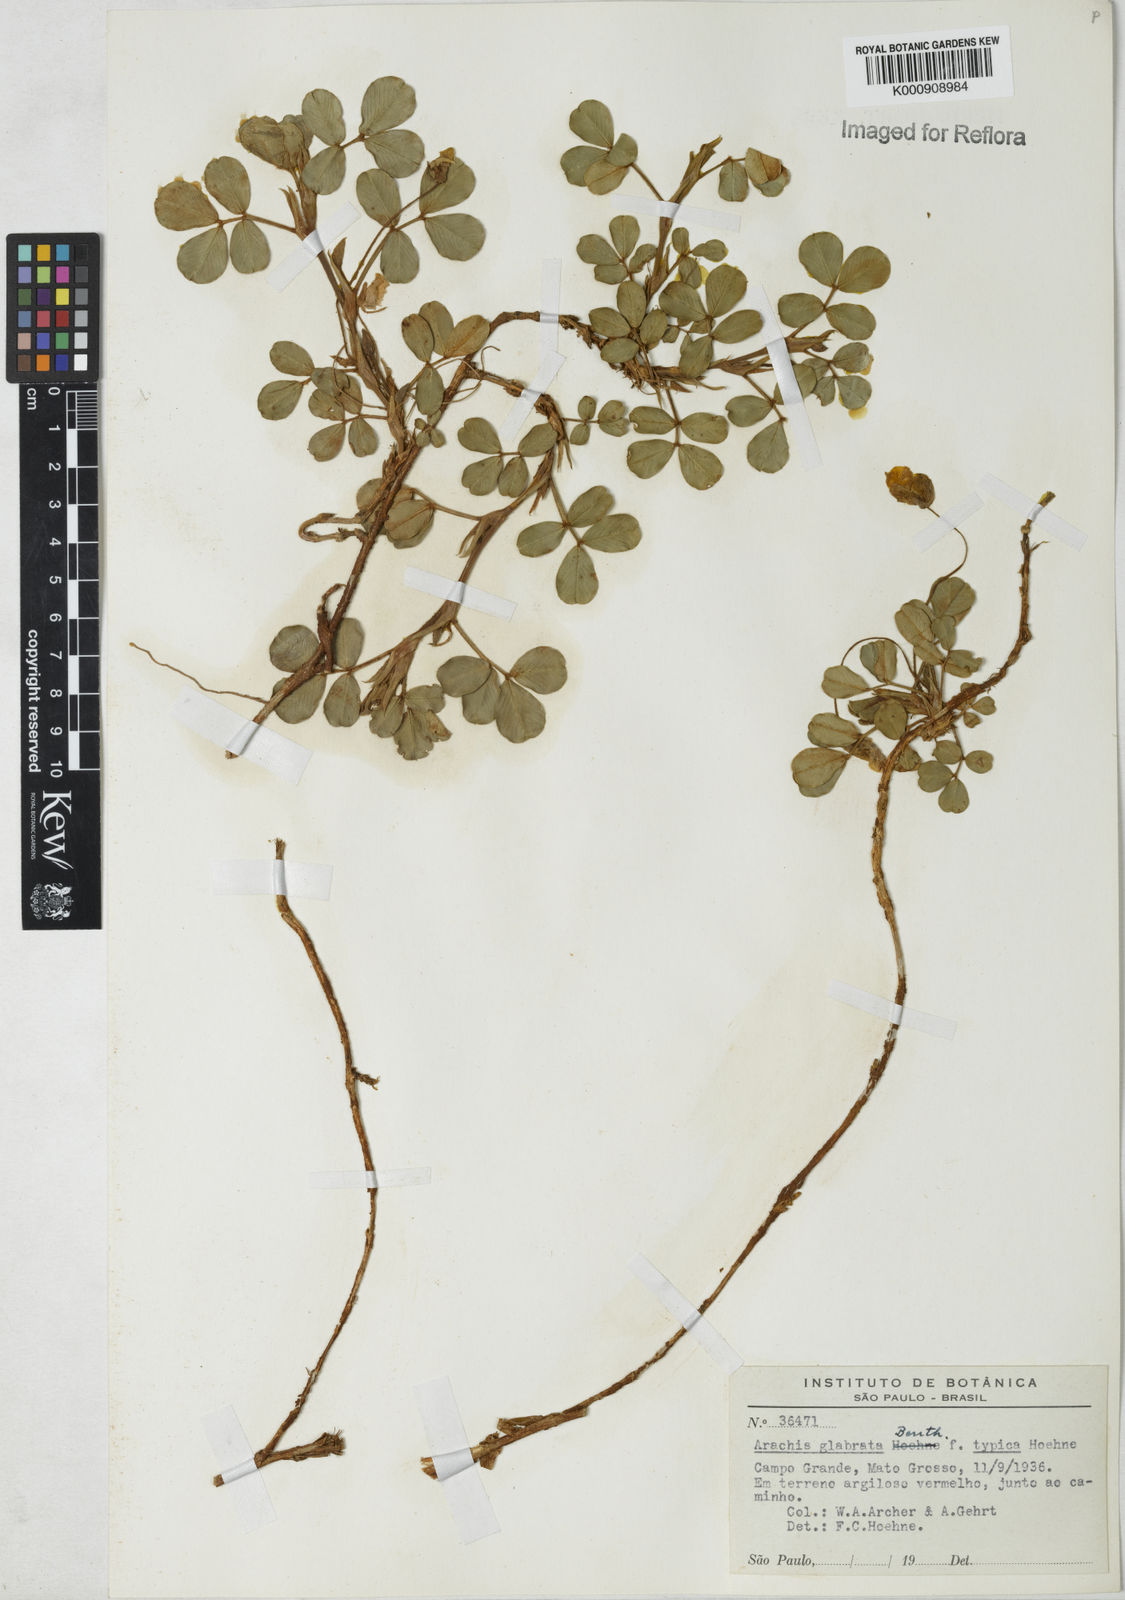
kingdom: Plantae
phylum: Tracheophyta
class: Magnoliopsida
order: Fabales
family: Fabaceae
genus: Arachis
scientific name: Arachis glabrata
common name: Rhizoma peanut
